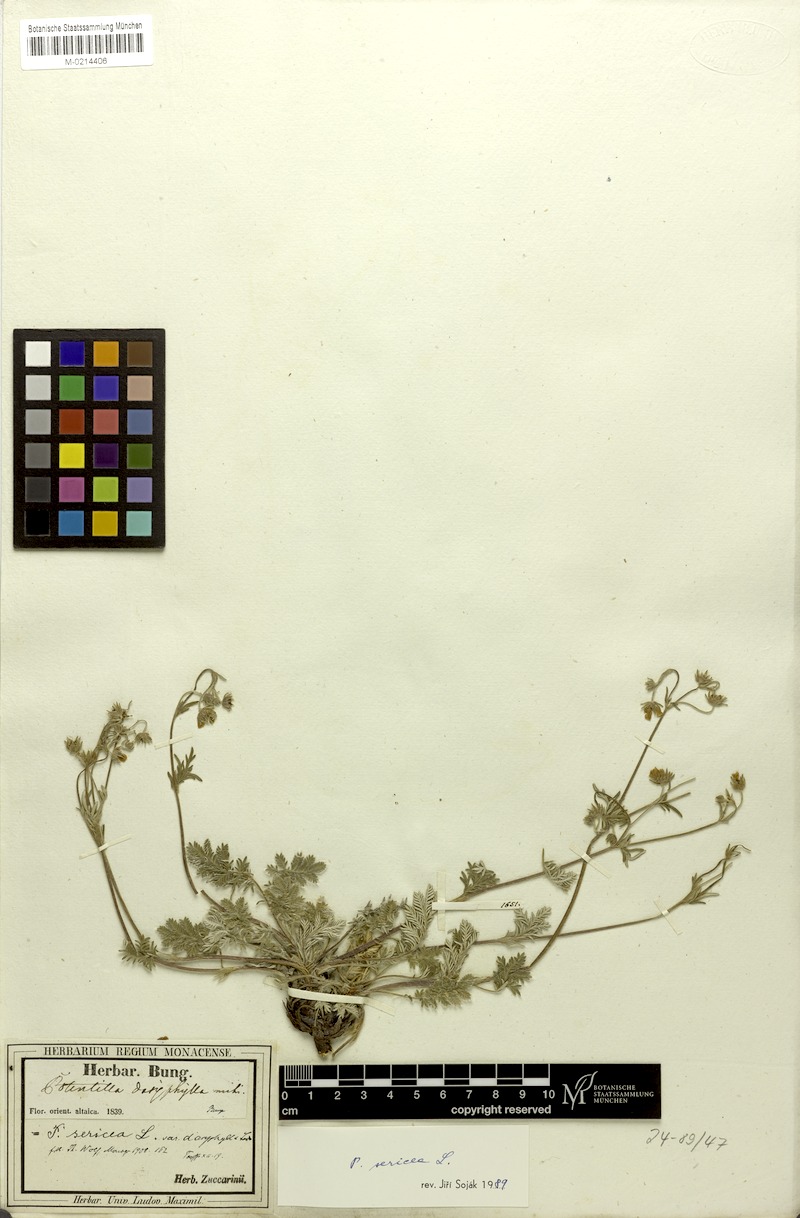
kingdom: Plantae
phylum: Tracheophyta
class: Magnoliopsida
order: Rosales
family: Rosaceae
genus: Potentilla
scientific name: Potentilla sericea
